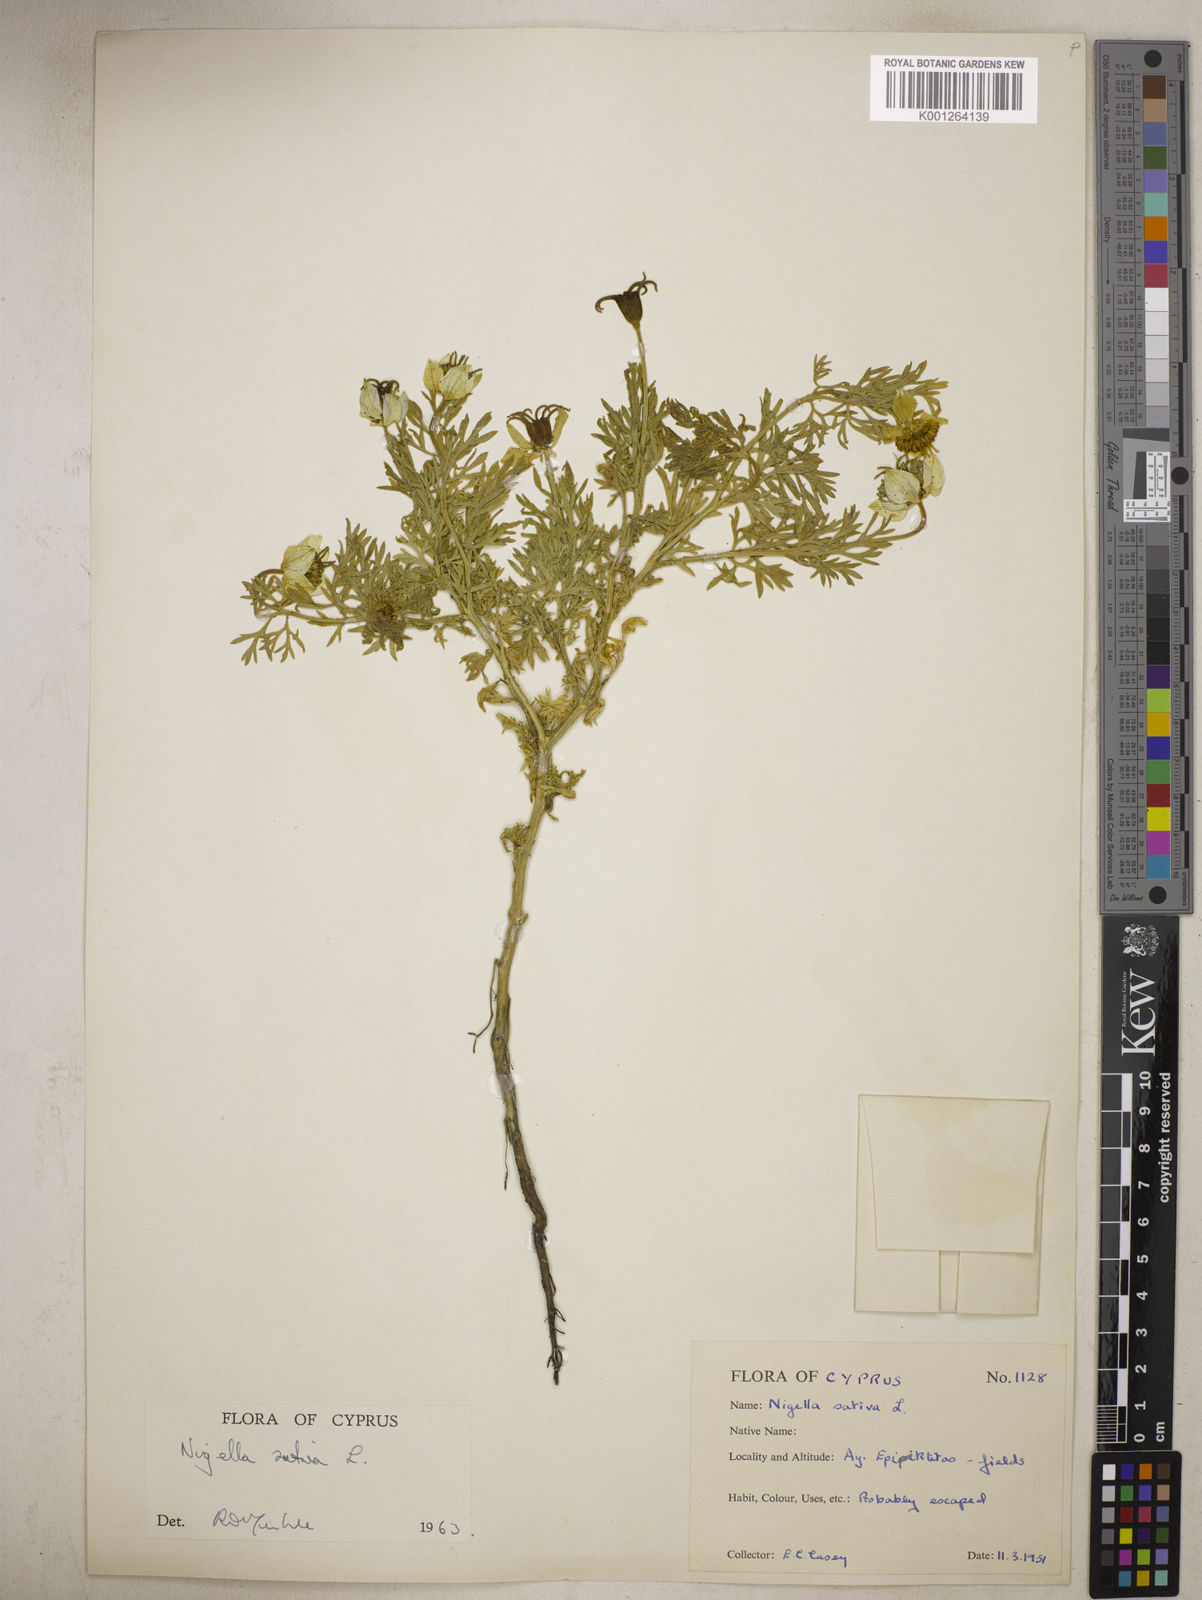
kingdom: Plantae
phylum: Tracheophyta
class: Magnoliopsida
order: Ranunculales
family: Ranunculaceae
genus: Nigella
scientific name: Nigella sativa
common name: Black-cumin
